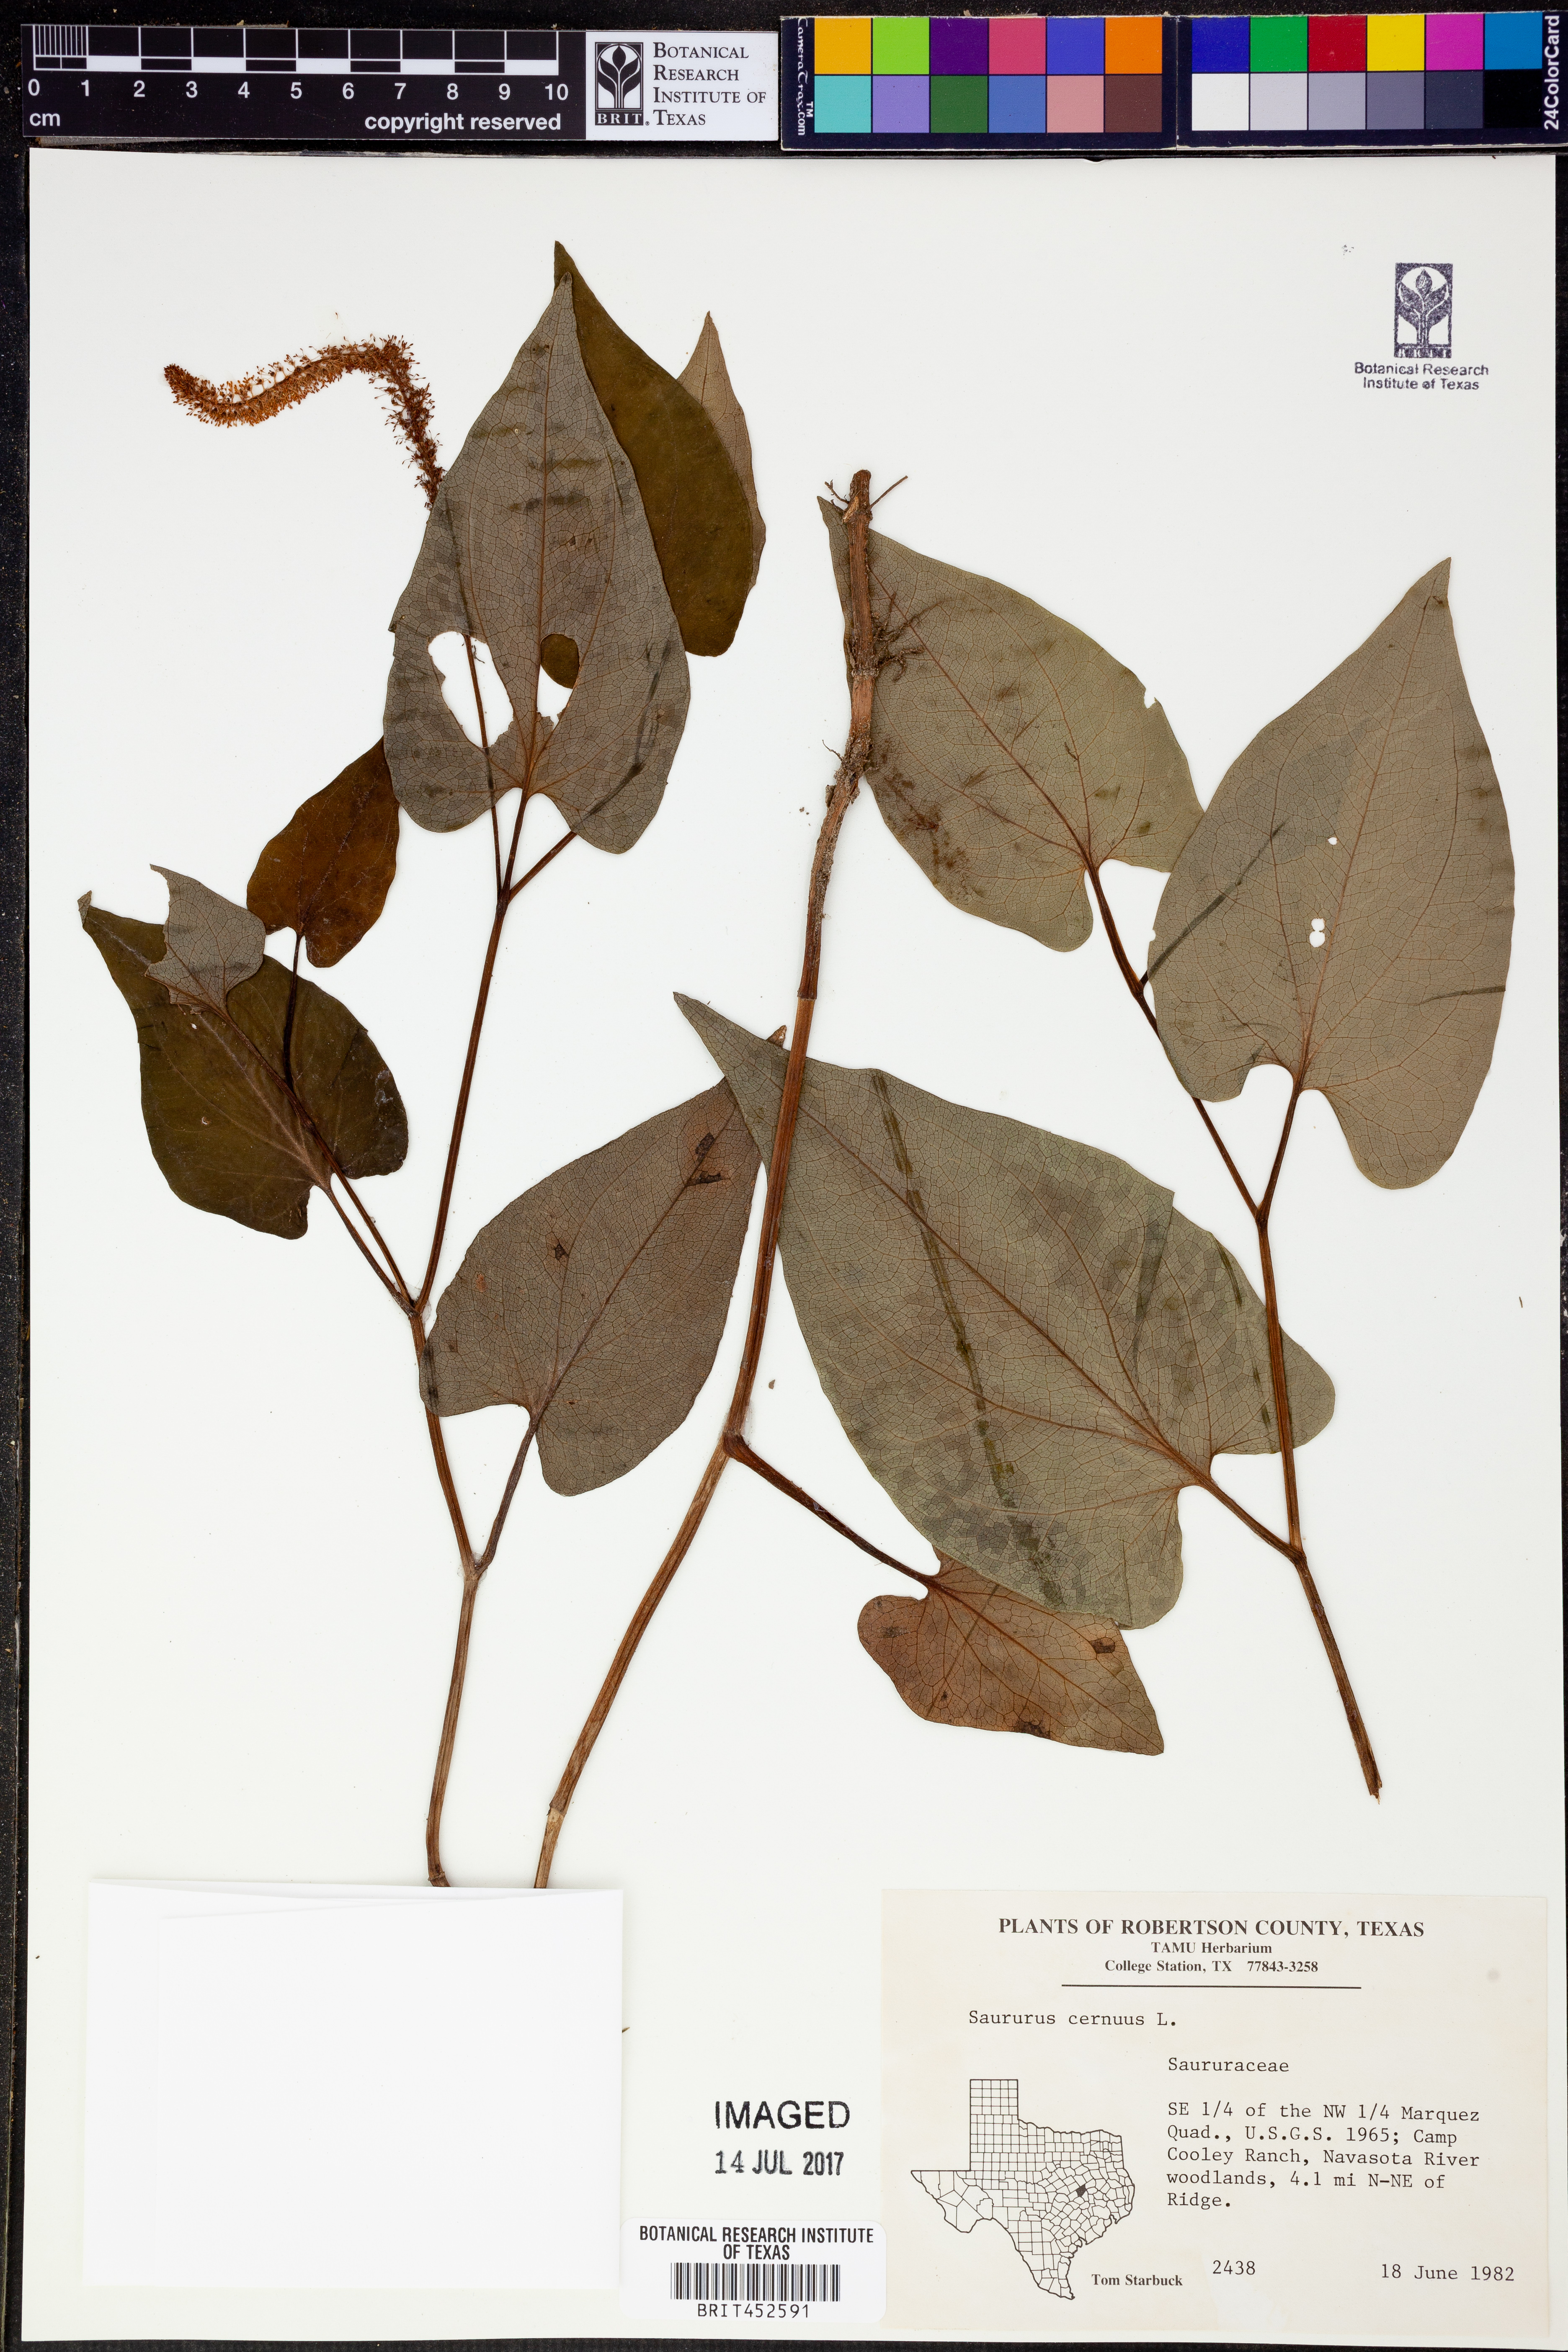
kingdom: Plantae
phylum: Tracheophyta
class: Magnoliopsida
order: Piperales
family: Saururaceae
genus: Saururus
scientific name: Saururus cernuus
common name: Lizard's-tail
